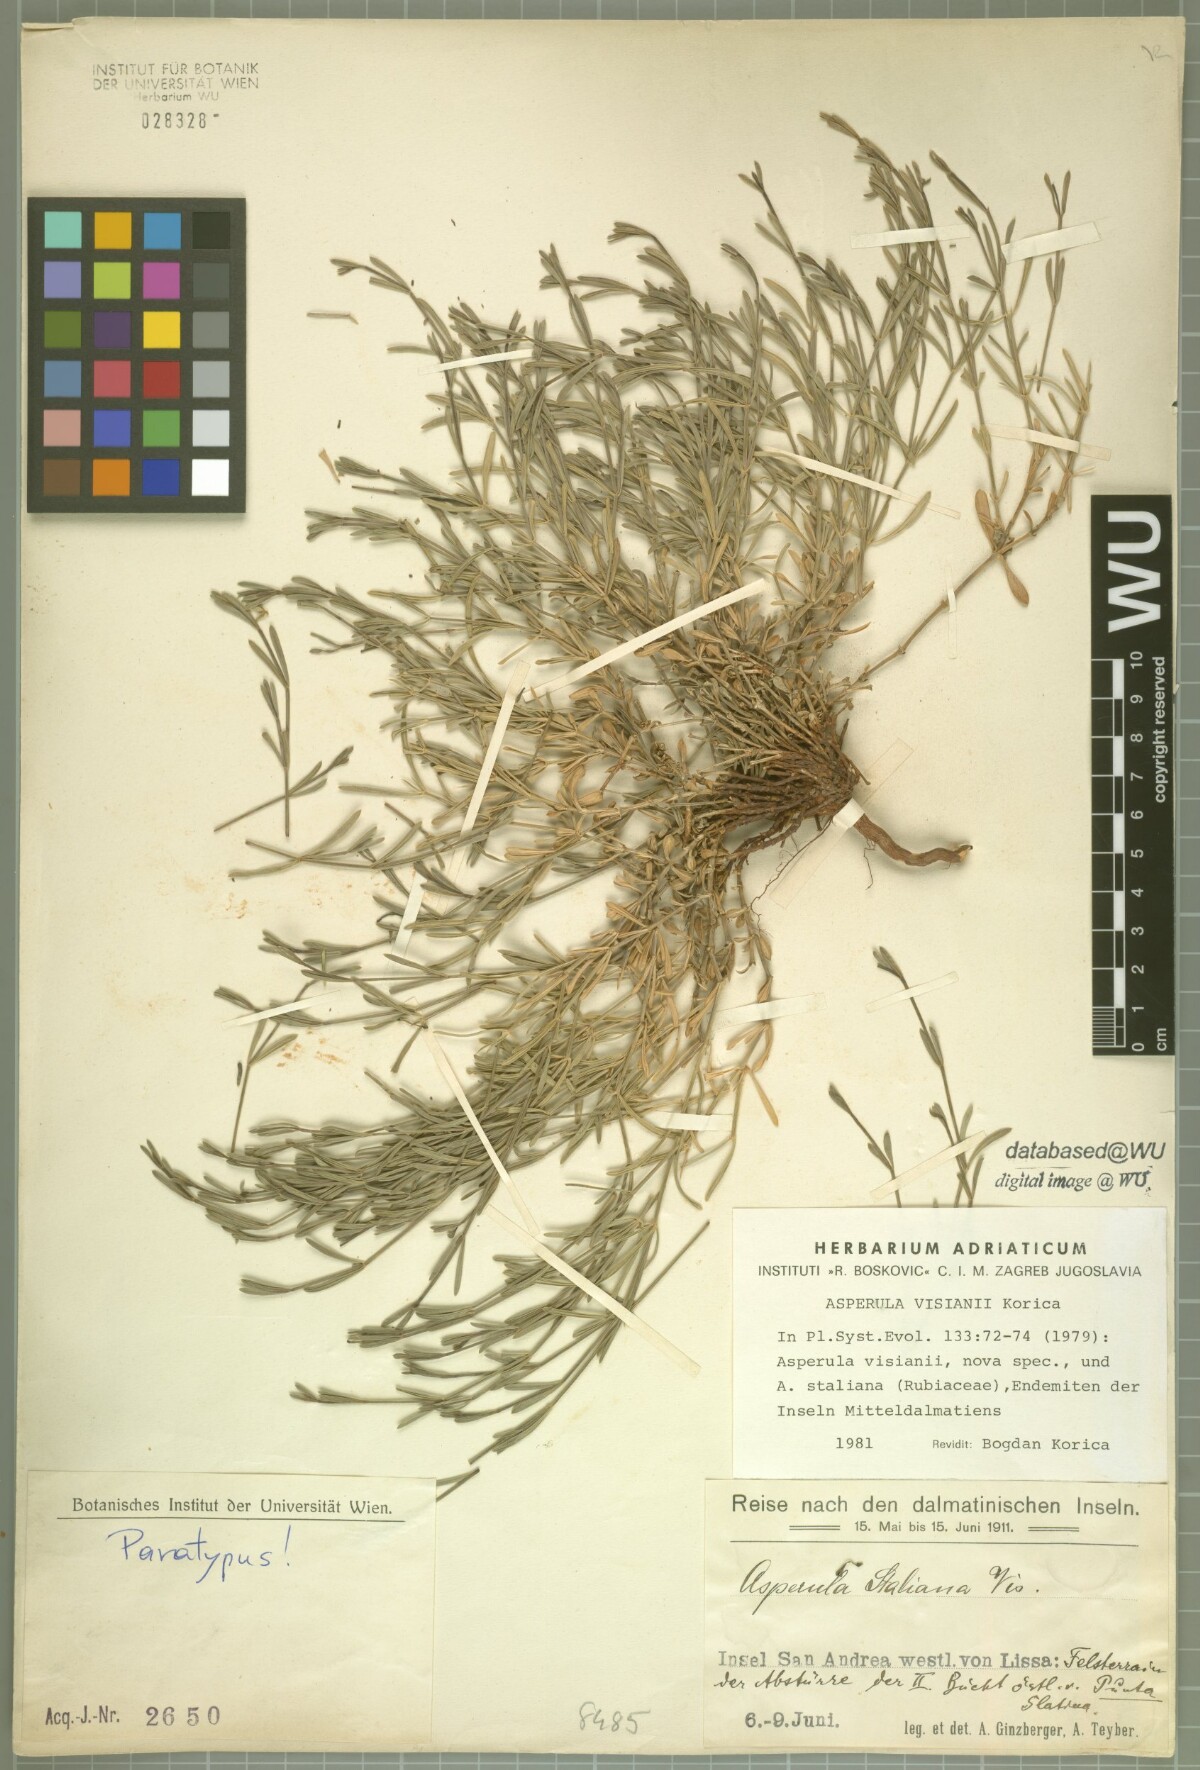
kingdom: Plantae
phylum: Tracheophyta
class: Magnoliopsida
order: Gentianales
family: Rubiaceae
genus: Cynanchica
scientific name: Cynanchica visianii
